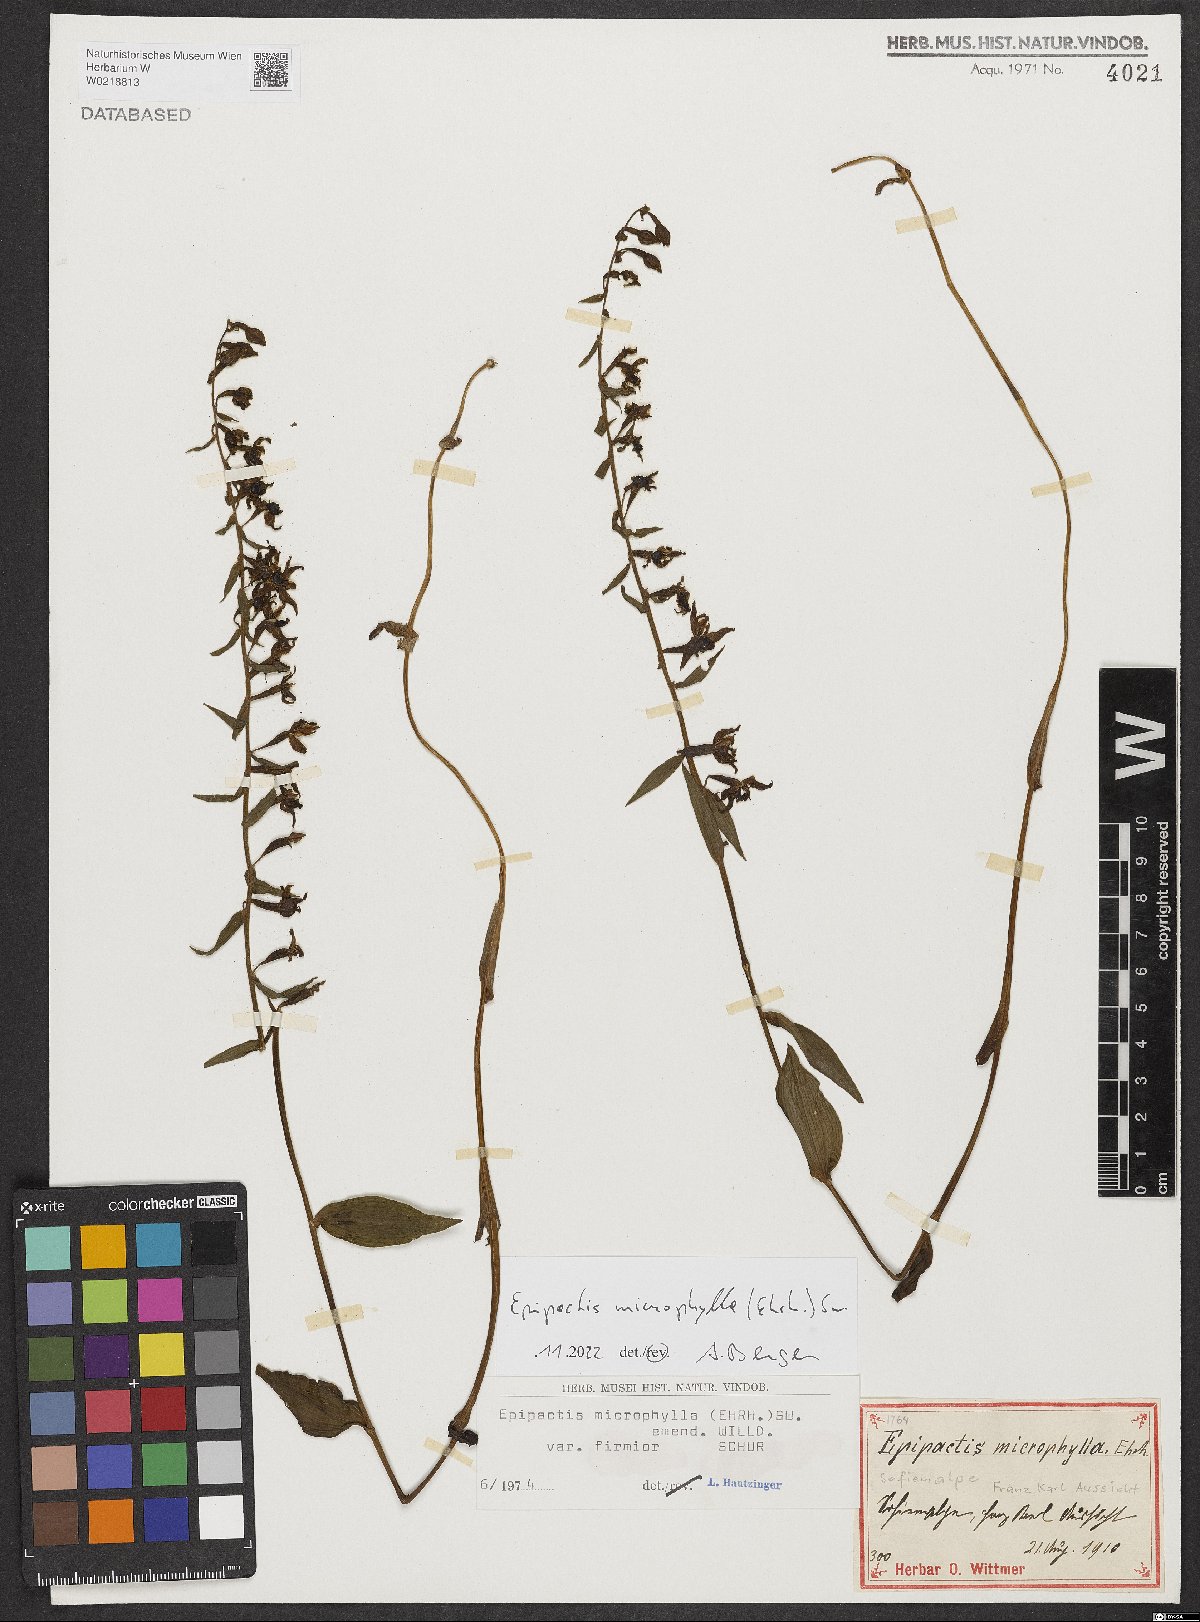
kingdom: Plantae
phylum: Tracheophyta
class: Liliopsida
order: Asparagales
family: Orchidaceae
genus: Epipactis
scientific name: Epipactis microphylla
